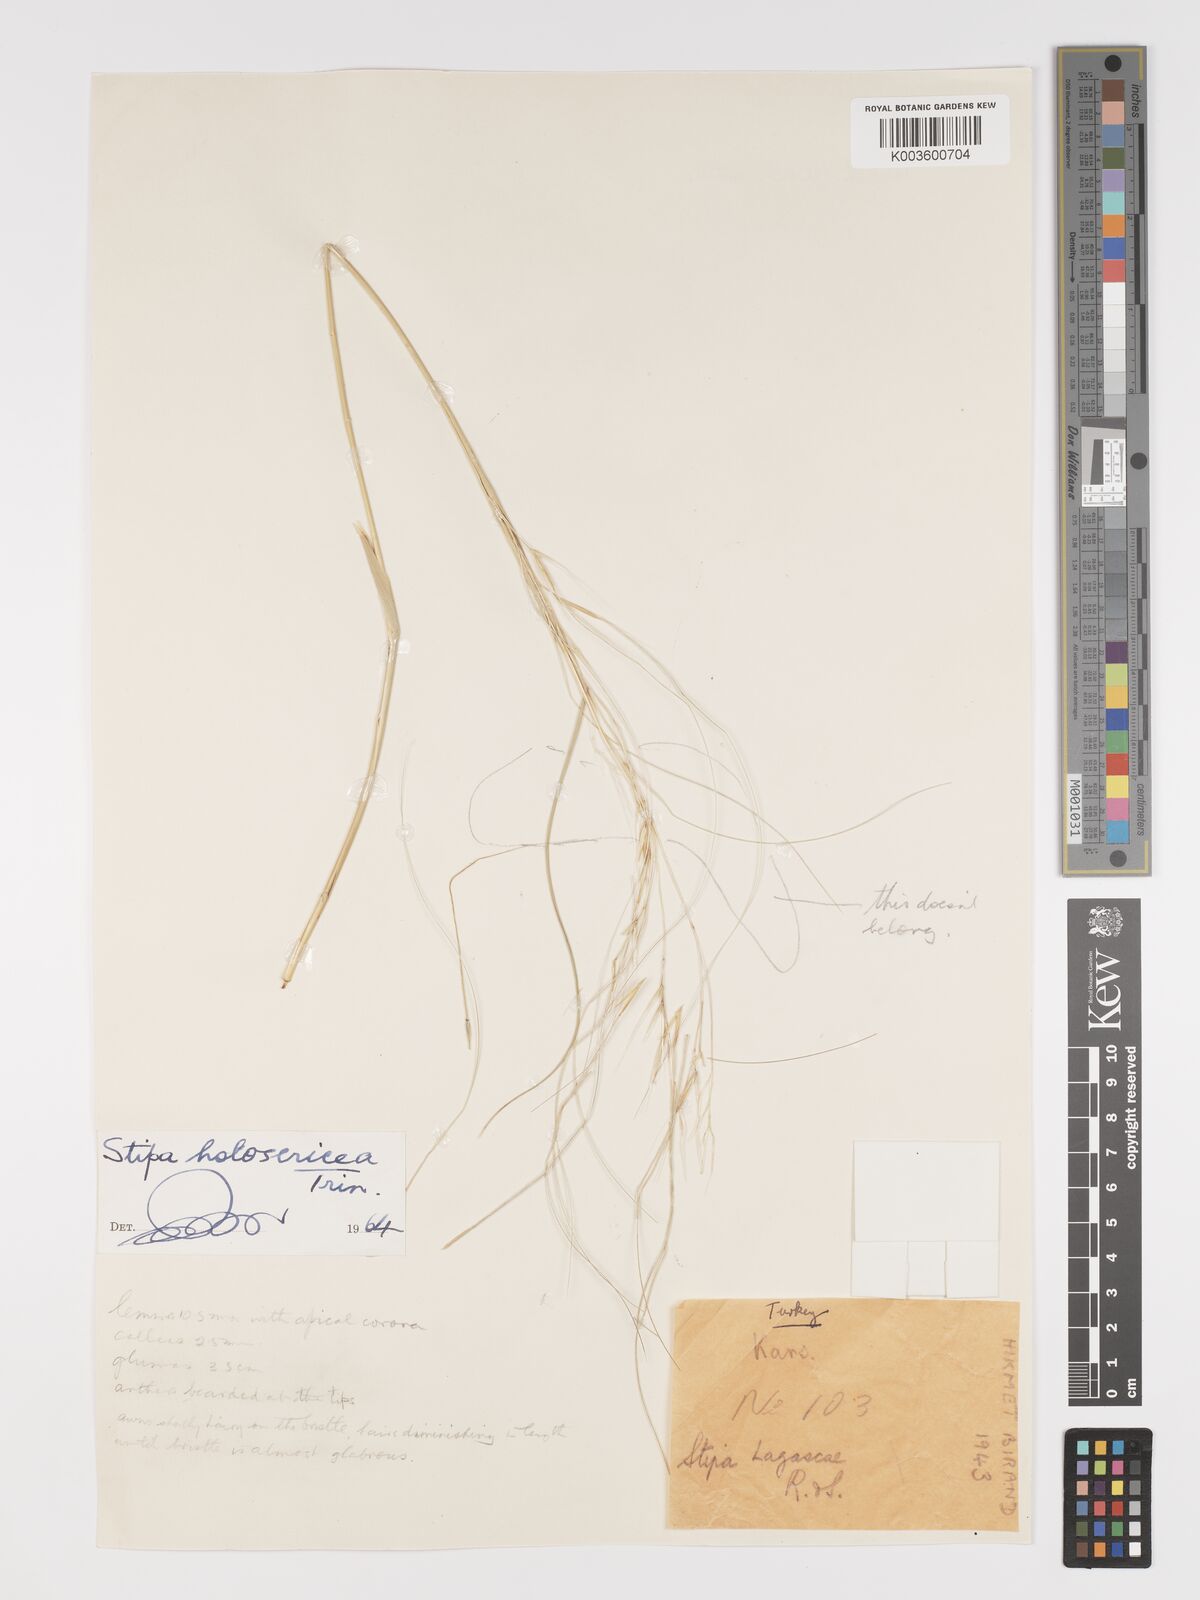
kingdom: Plantae
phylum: Tracheophyta
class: Liliopsida
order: Poales
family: Poaceae
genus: Stipa
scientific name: Stipa holosericea
